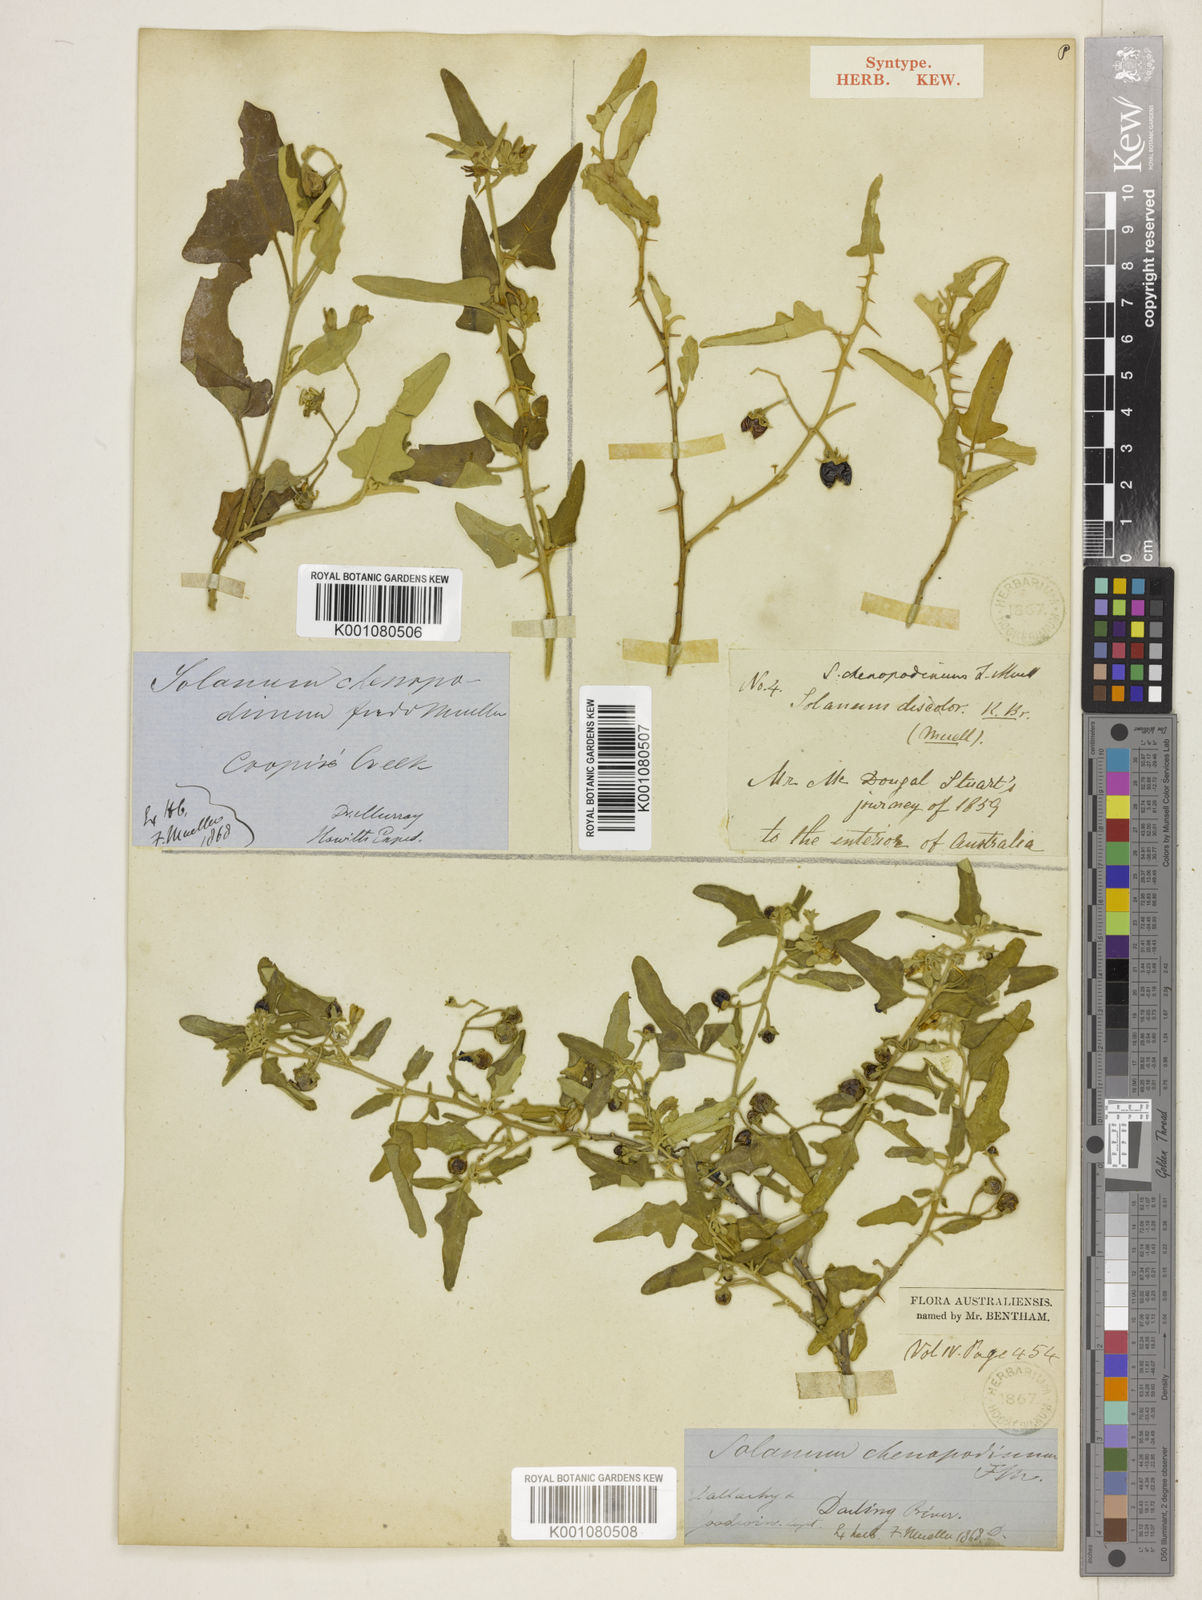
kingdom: Plantae
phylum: Tracheophyta
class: Magnoliopsida
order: Solanales
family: Solanaceae
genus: Solanum
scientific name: Solanum
